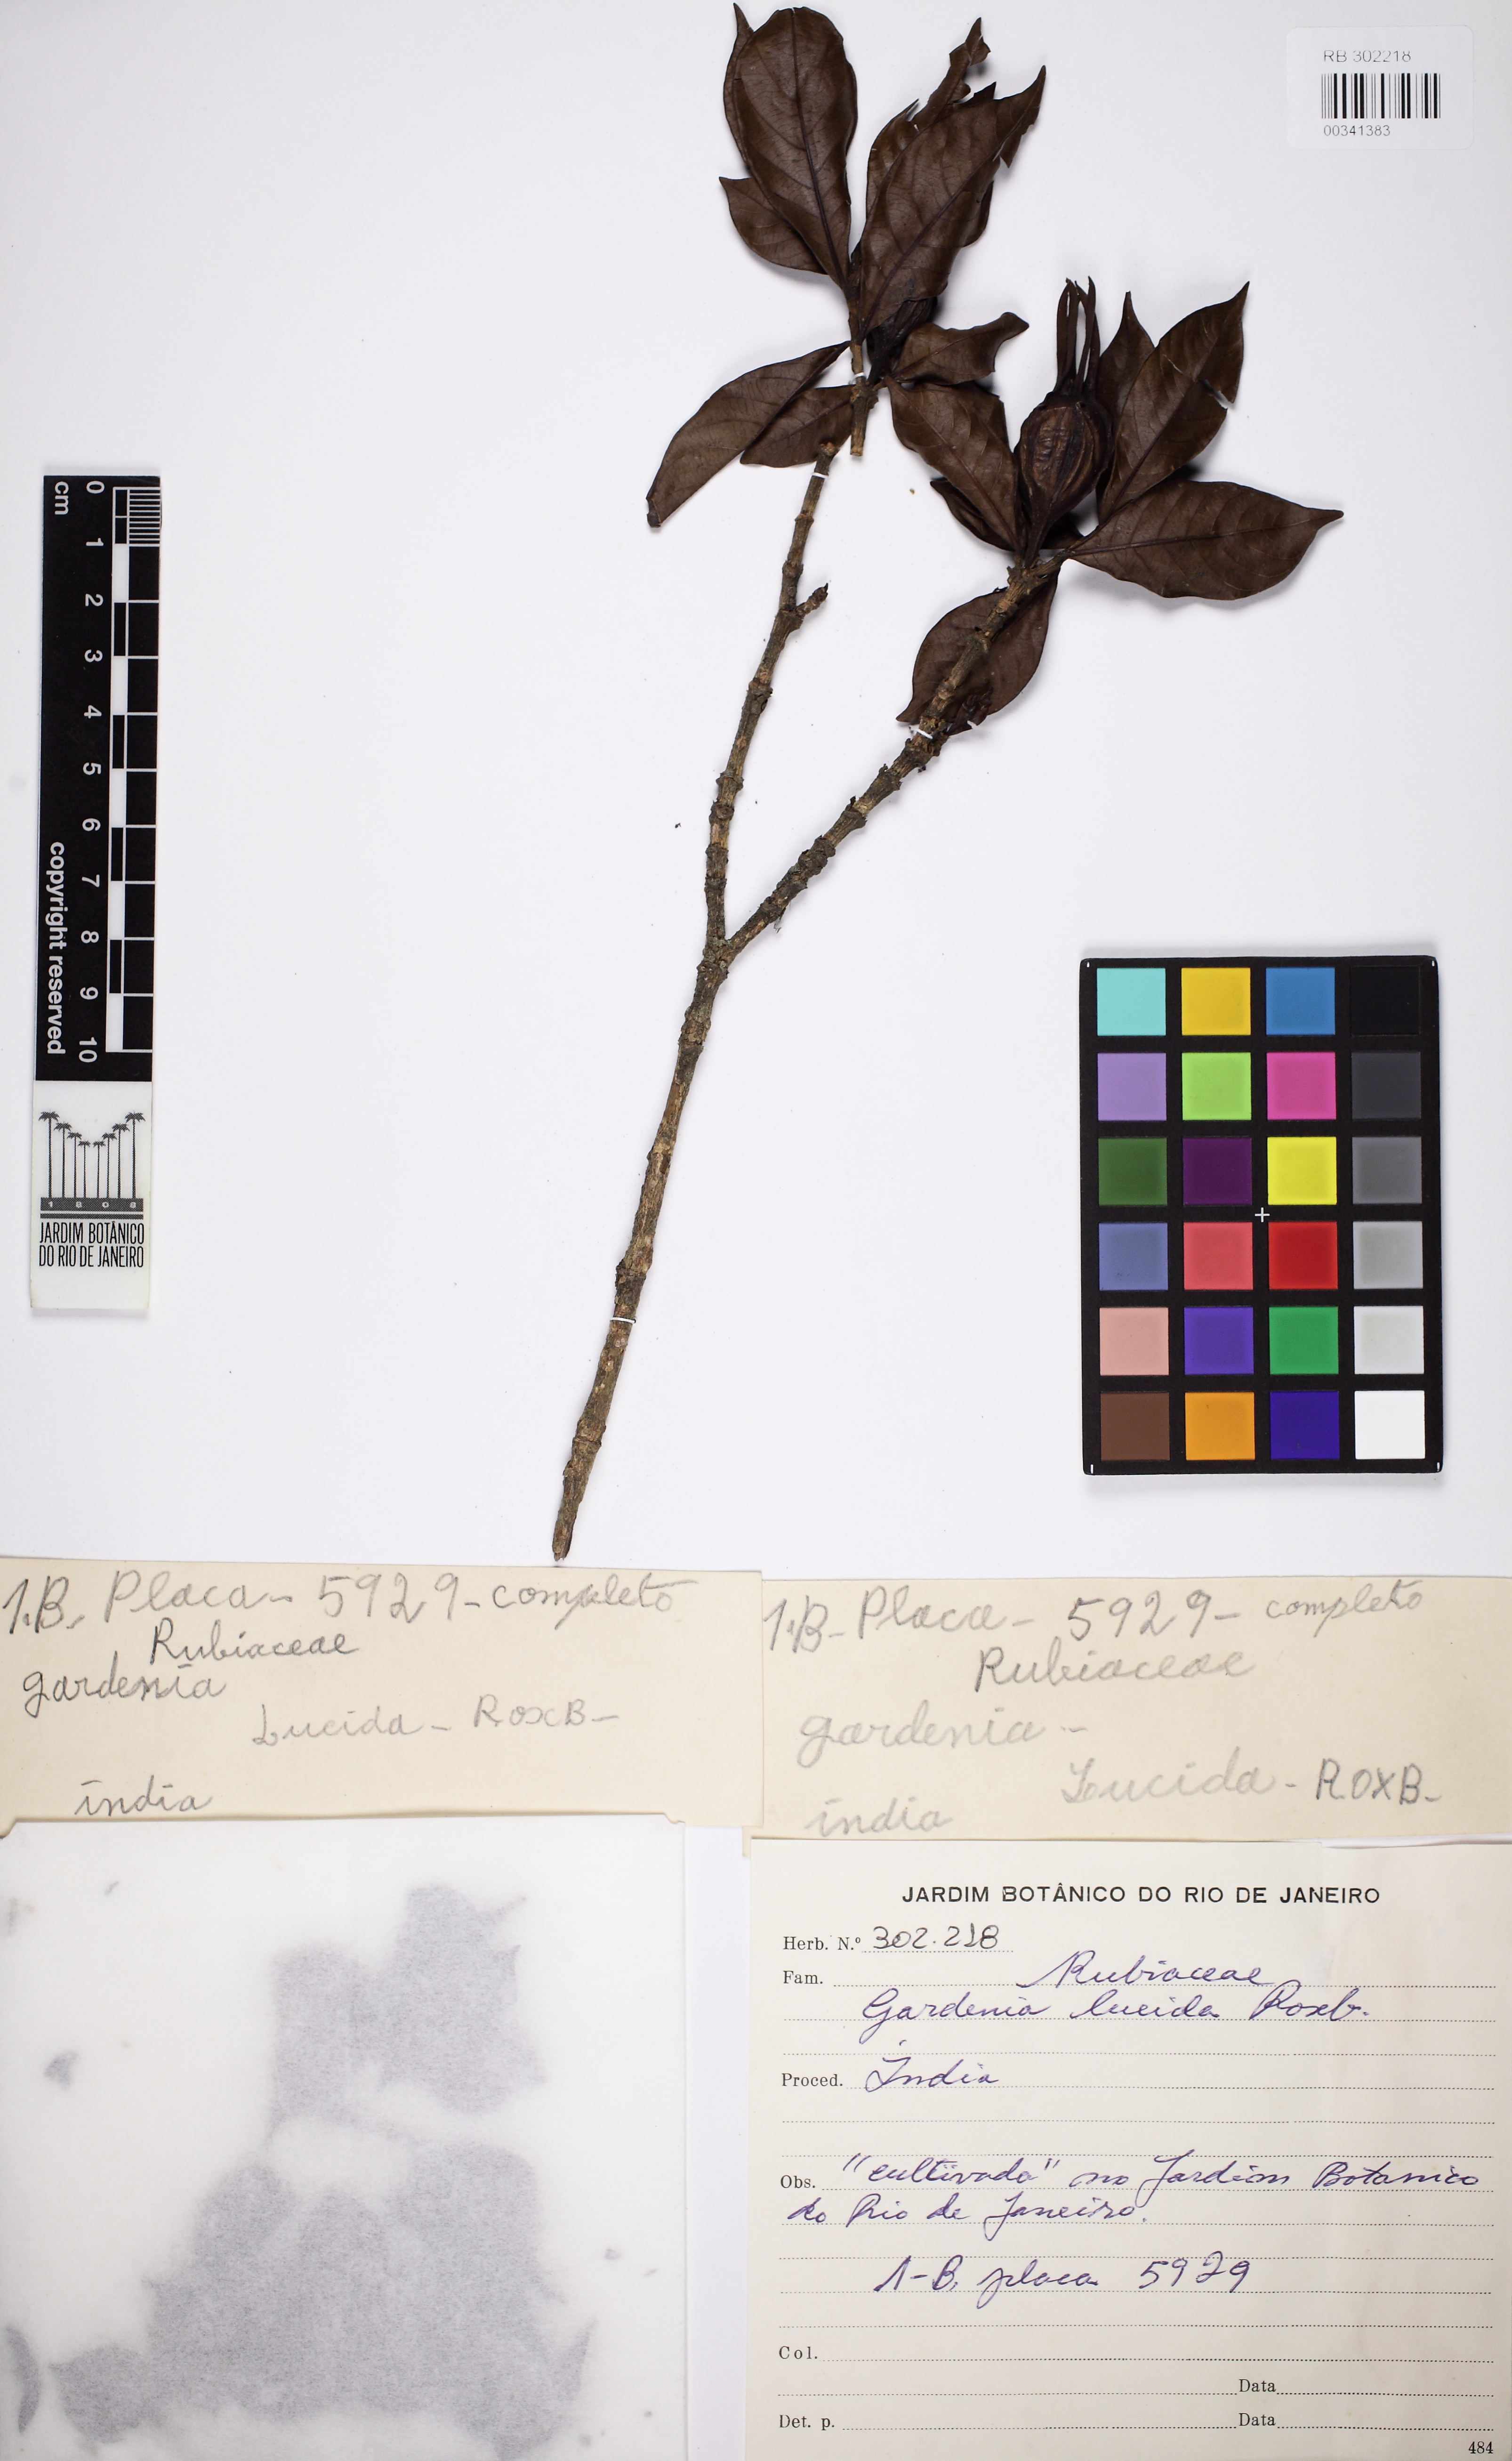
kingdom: Plantae
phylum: Tracheophyta
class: Magnoliopsida
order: Gentianales
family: Rubiaceae
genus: Gardenia
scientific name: Gardenia resinifera
